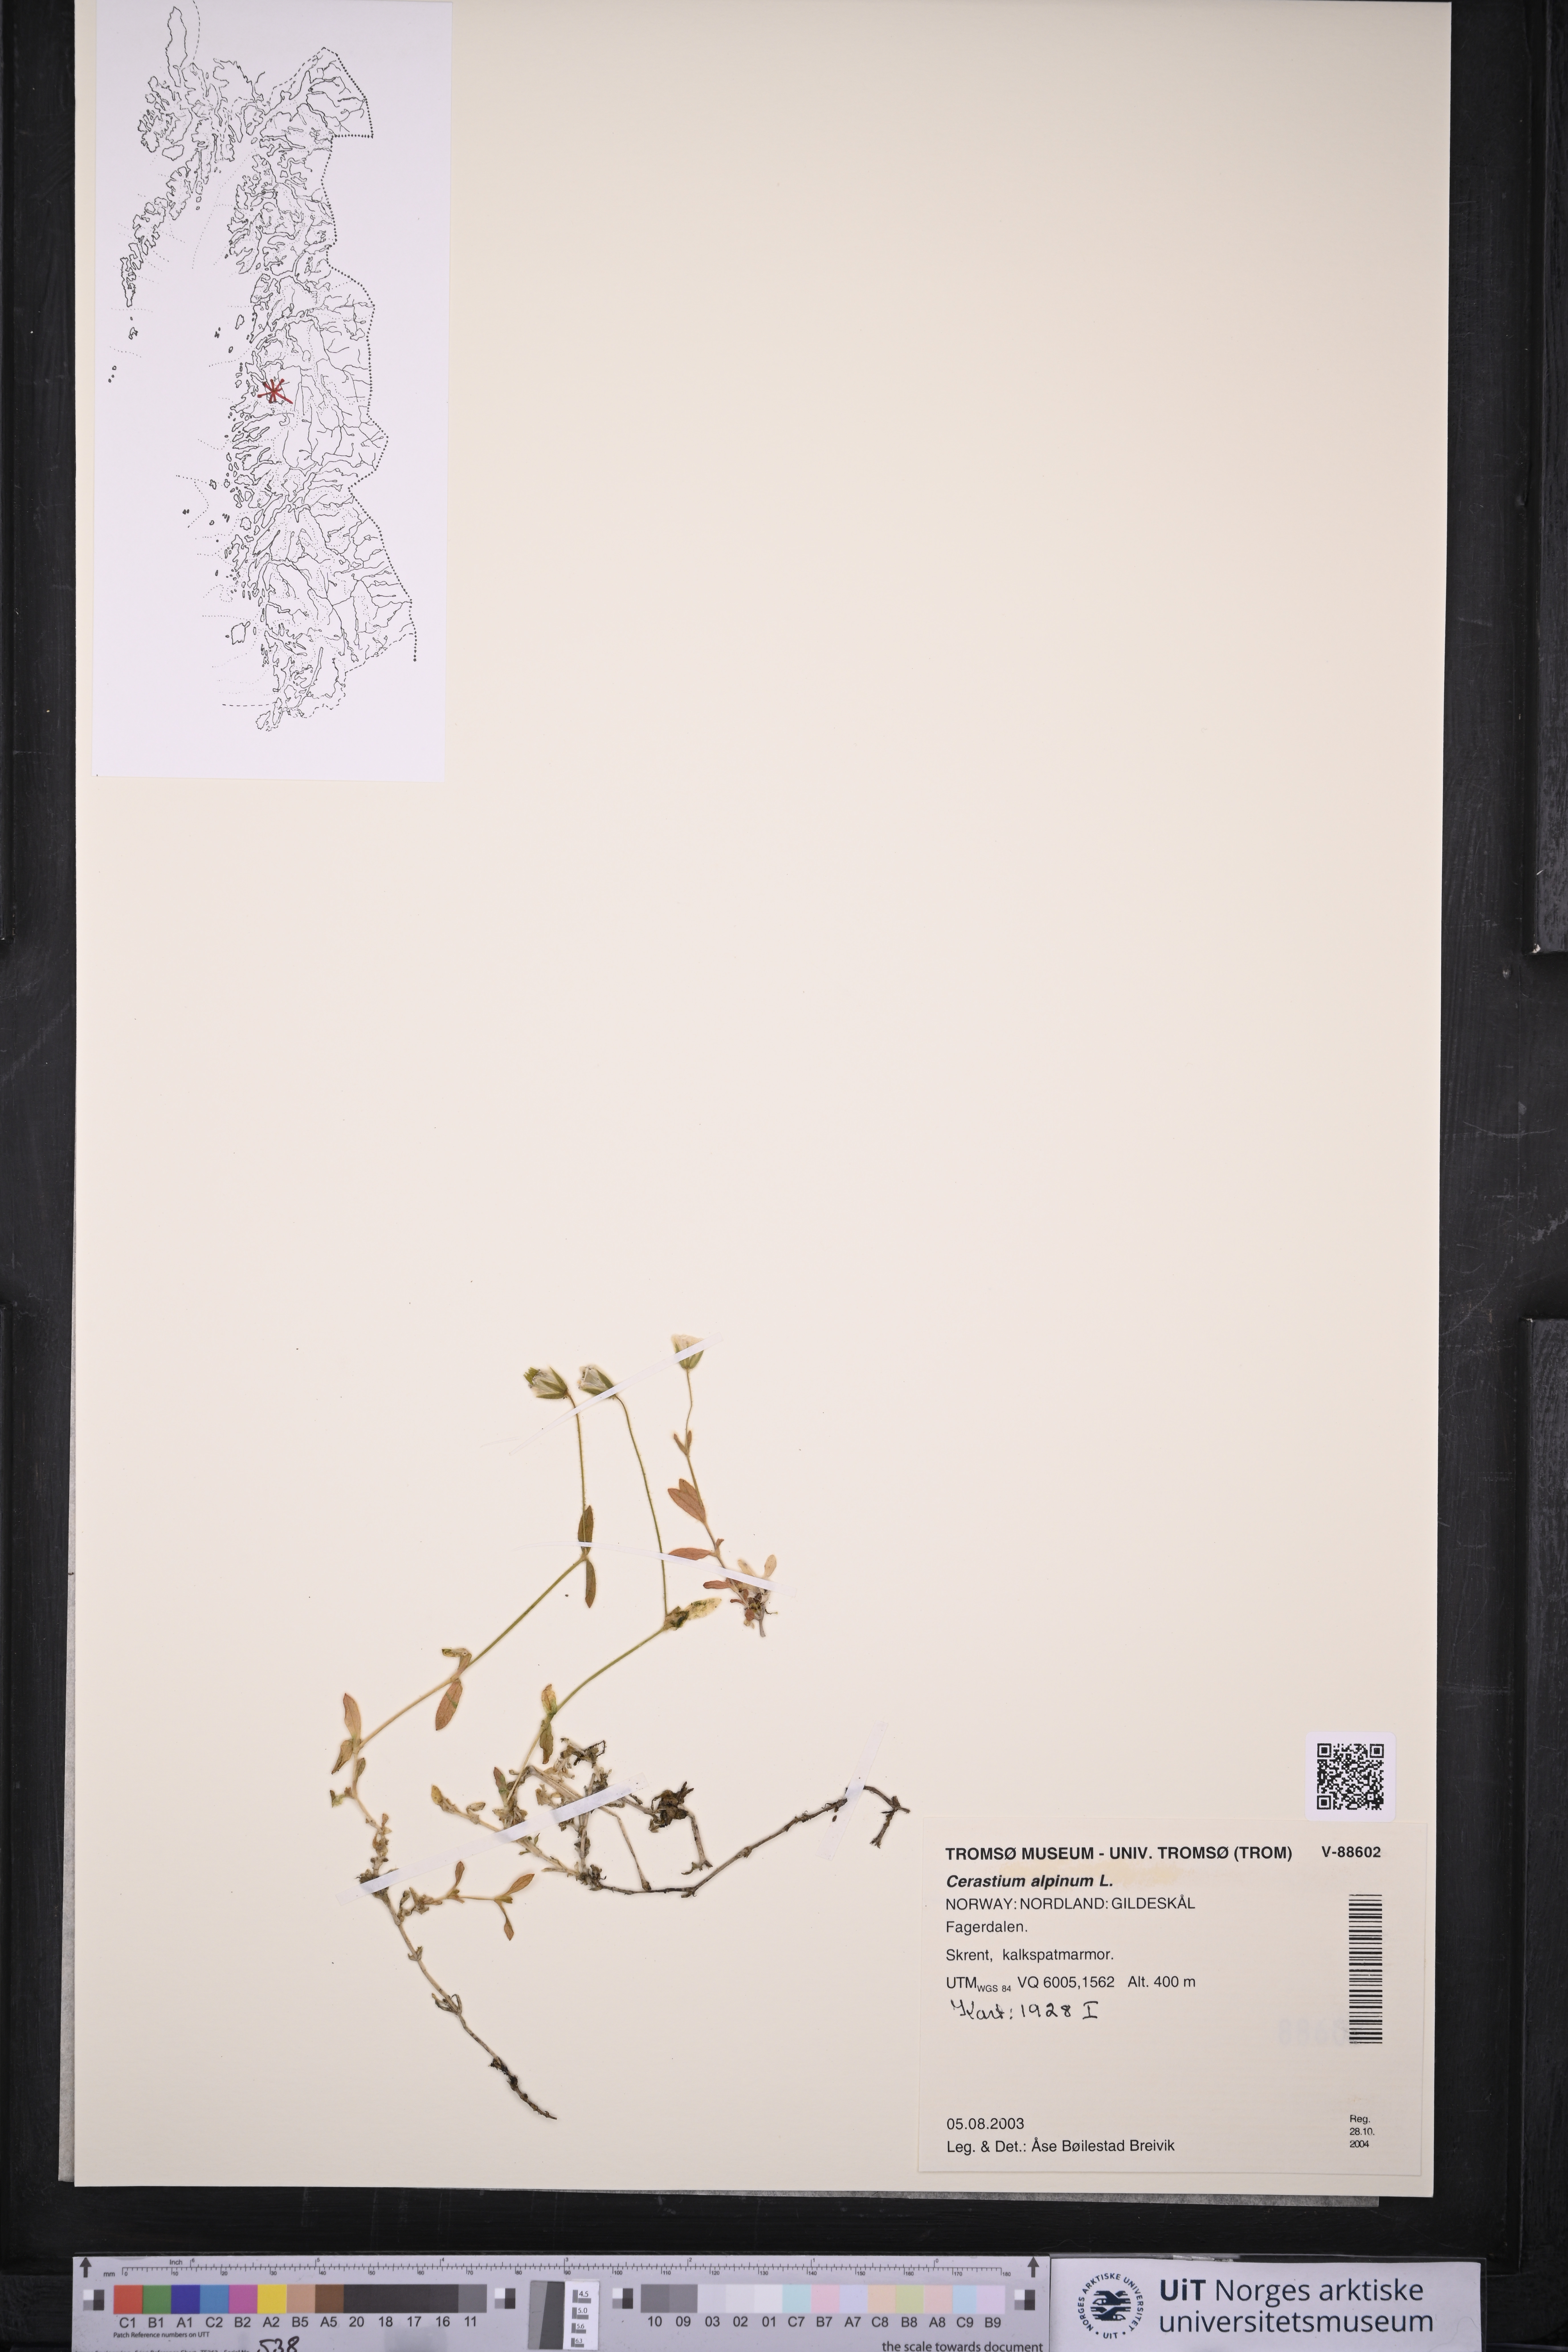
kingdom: Plantae
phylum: Tracheophyta
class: Magnoliopsida
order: Caryophyllales
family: Caryophyllaceae
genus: Cerastium
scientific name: Cerastium alpinum
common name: Alpine mouse-ear
